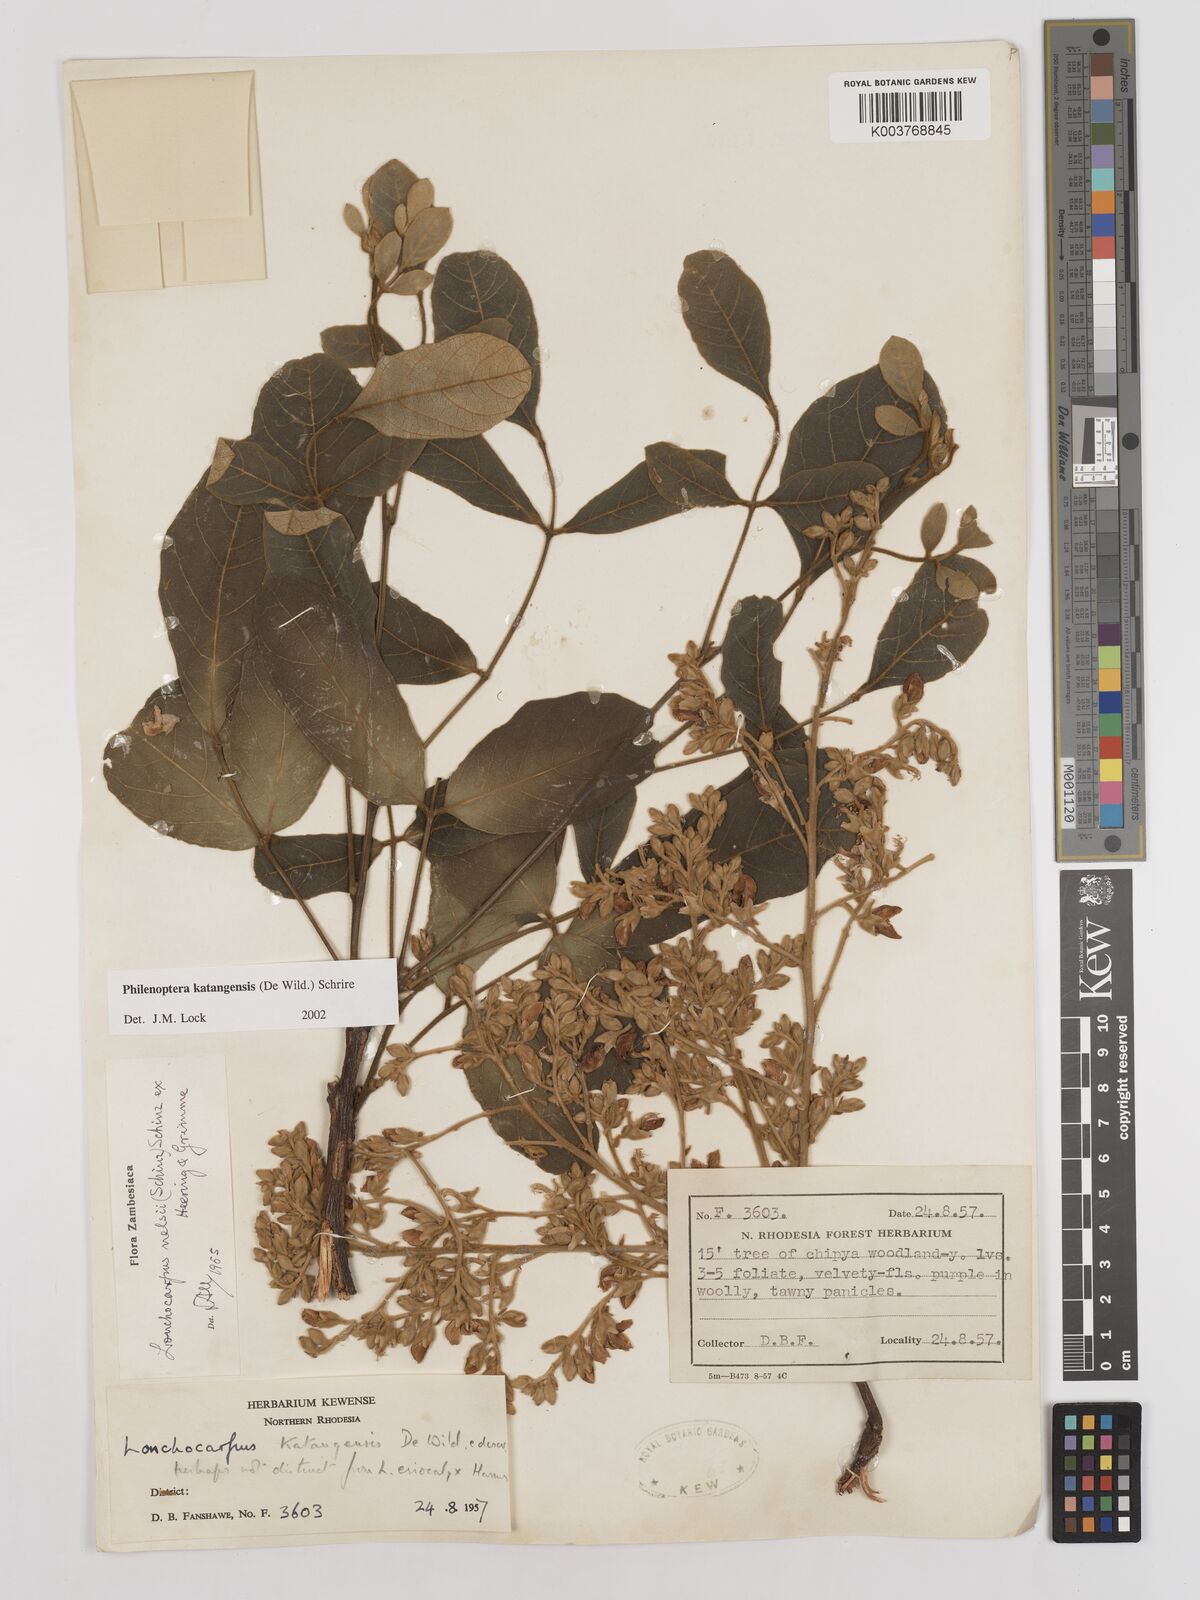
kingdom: Plantae
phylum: Tracheophyta
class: Magnoliopsida
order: Fabales
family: Fabaceae
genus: Philenoptera
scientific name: Philenoptera katangensis
